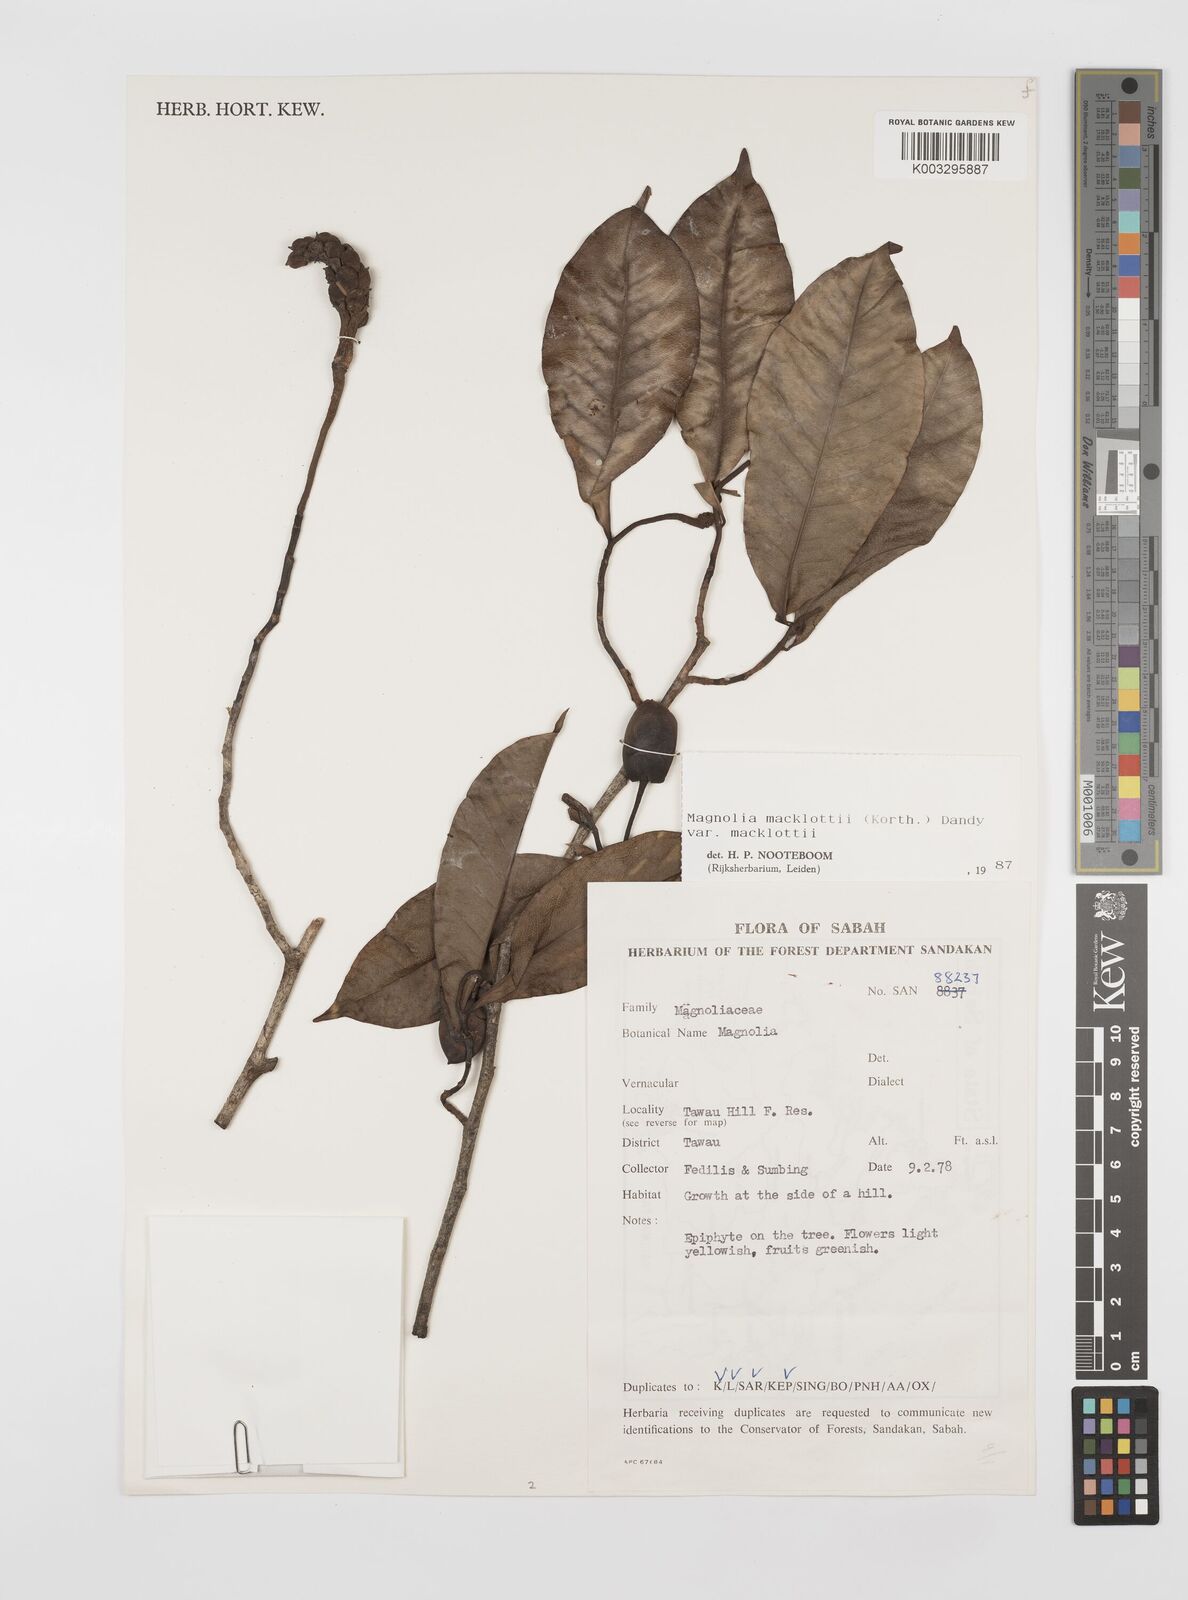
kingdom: Plantae
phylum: Tracheophyta
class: Magnoliopsida
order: Magnoliales
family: Magnoliaceae
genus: Magnolia
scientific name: Magnolia macklottii
